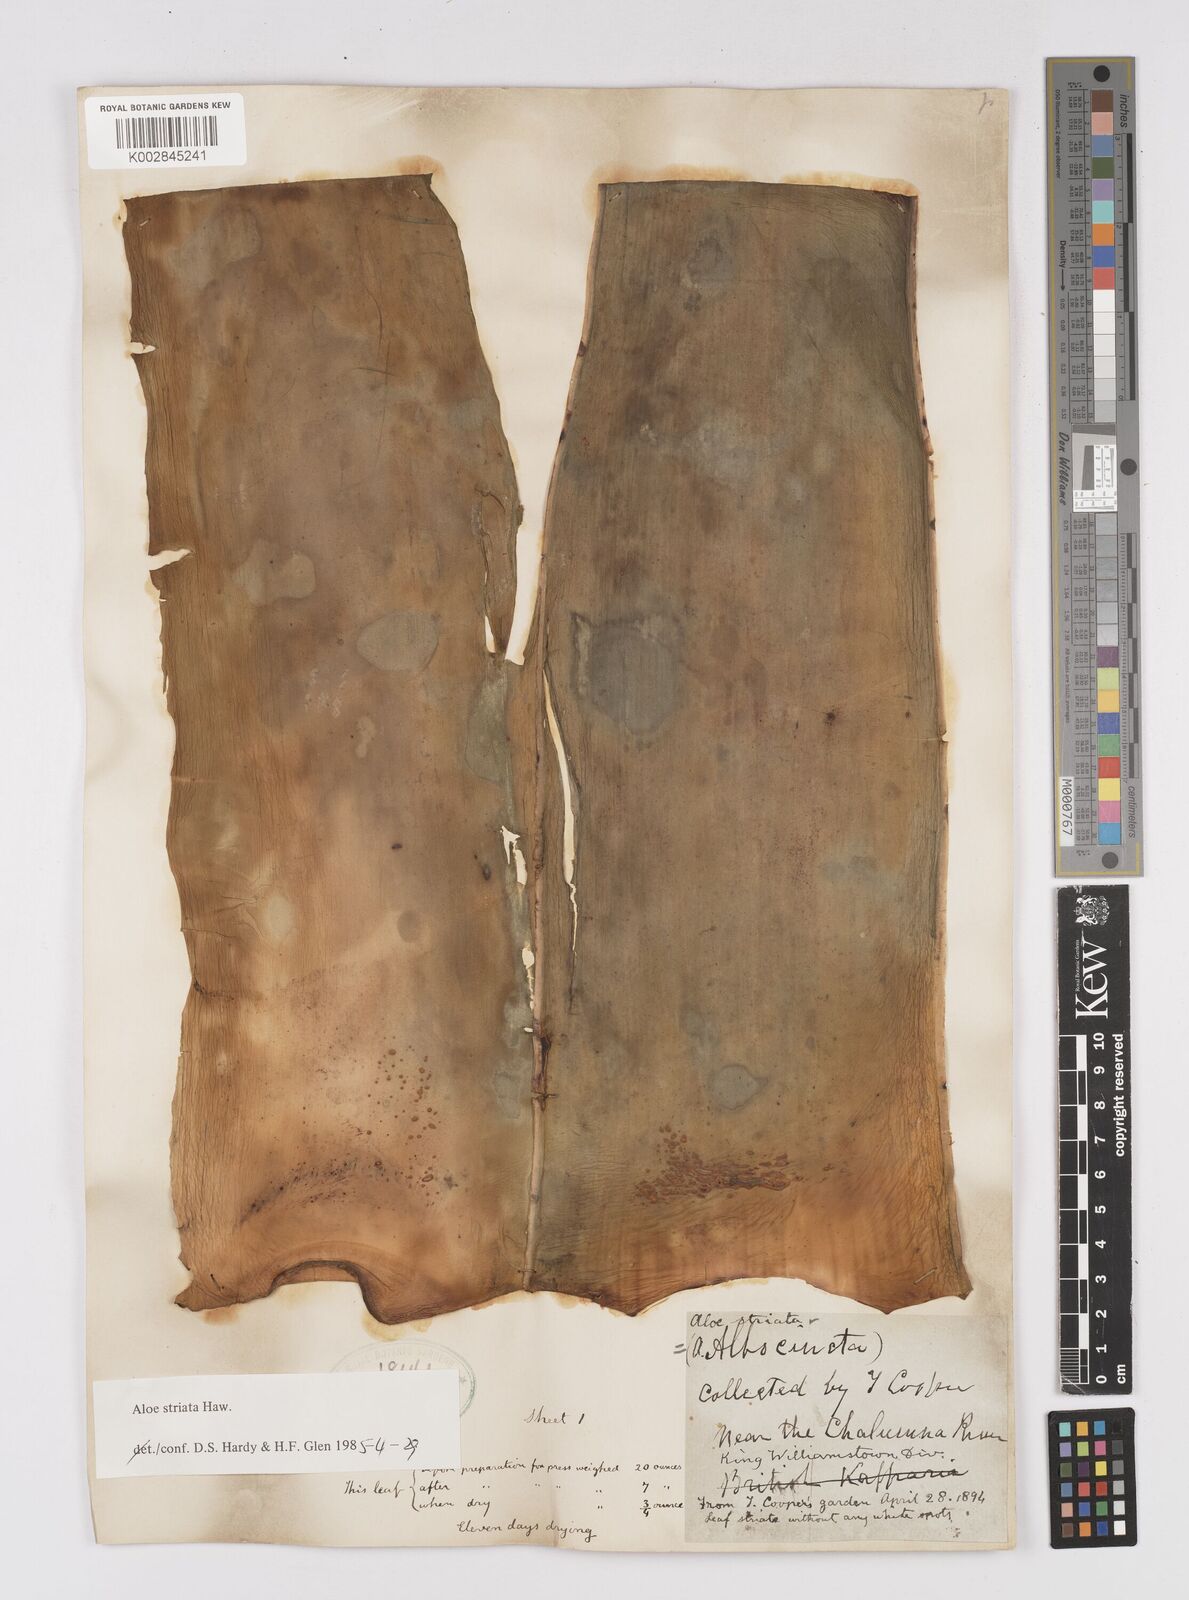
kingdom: Plantae
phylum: Tracheophyta
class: Liliopsida
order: Asparagales
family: Asphodelaceae
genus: Aloe
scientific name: Aloe striata
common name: Coral aloe
